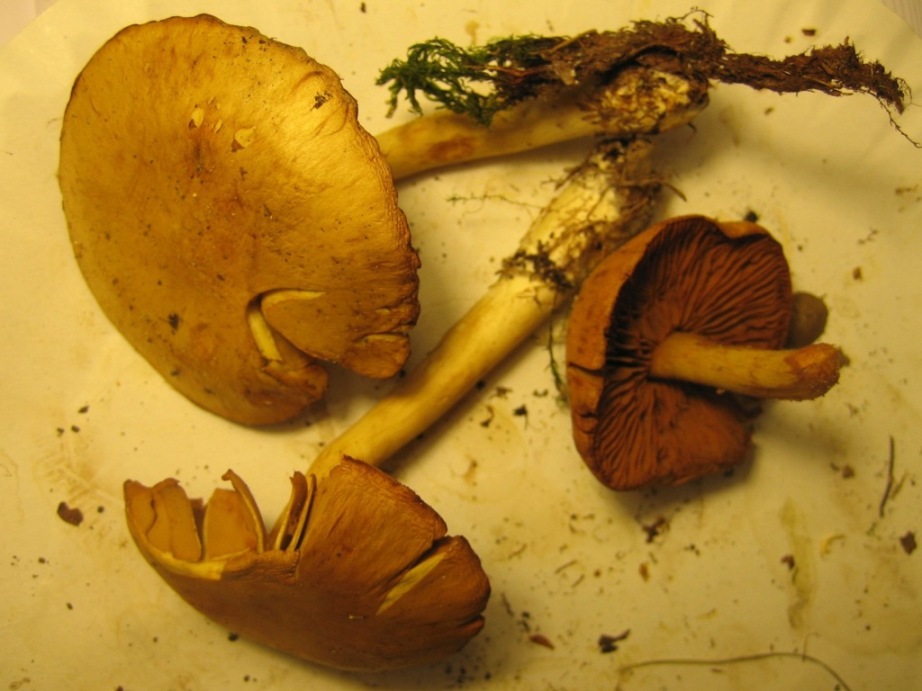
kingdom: Fungi
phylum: Basidiomycota
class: Agaricomycetes
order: Agaricales
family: Cortinariaceae
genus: Cortinarius
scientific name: Cortinarius tabularis
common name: lerbrun slørhat
